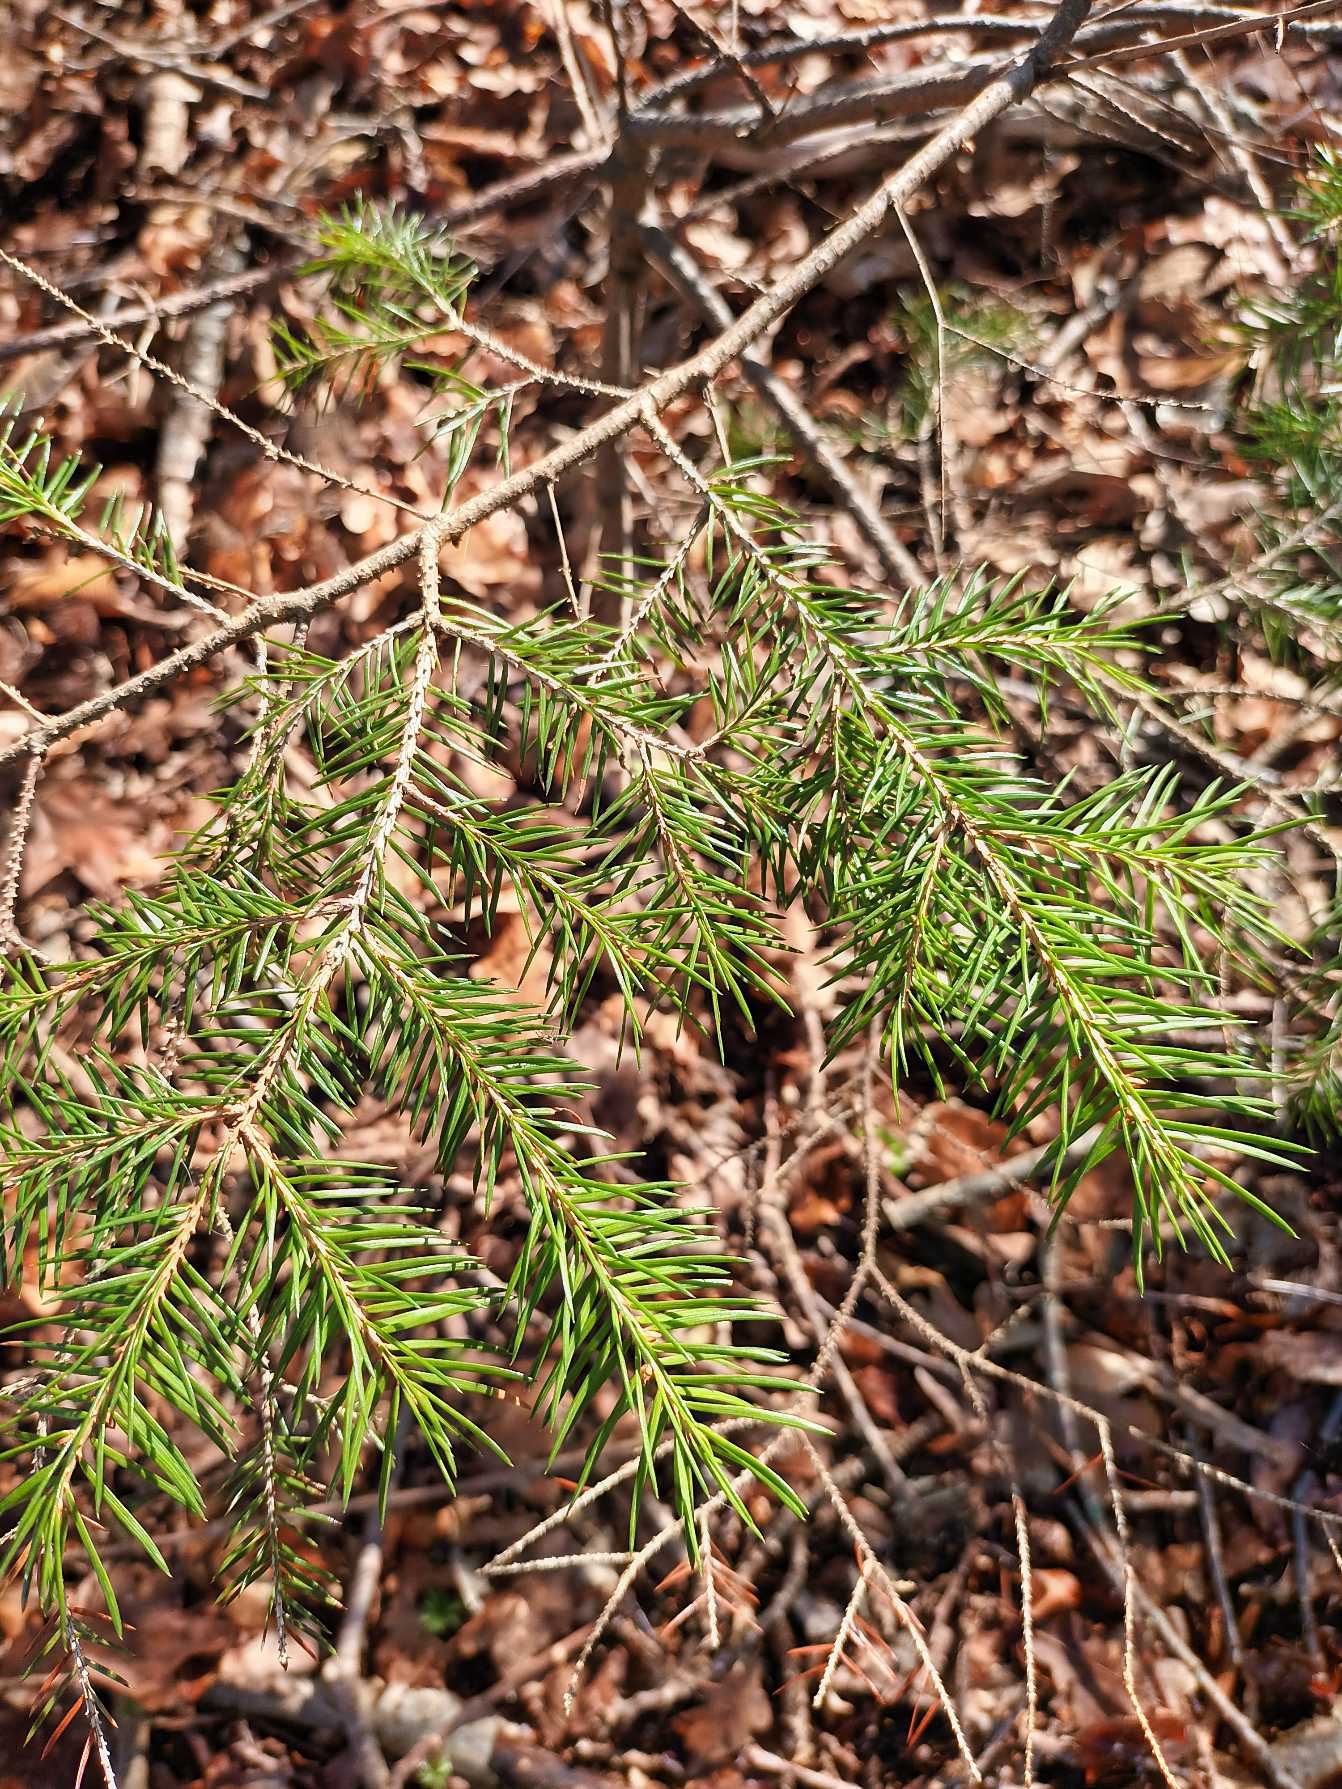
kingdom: Plantae
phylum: Tracheophyta
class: Pinopsida
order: Pinales
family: Pinaceae
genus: Picea
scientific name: Picea abies
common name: Rød-gran
